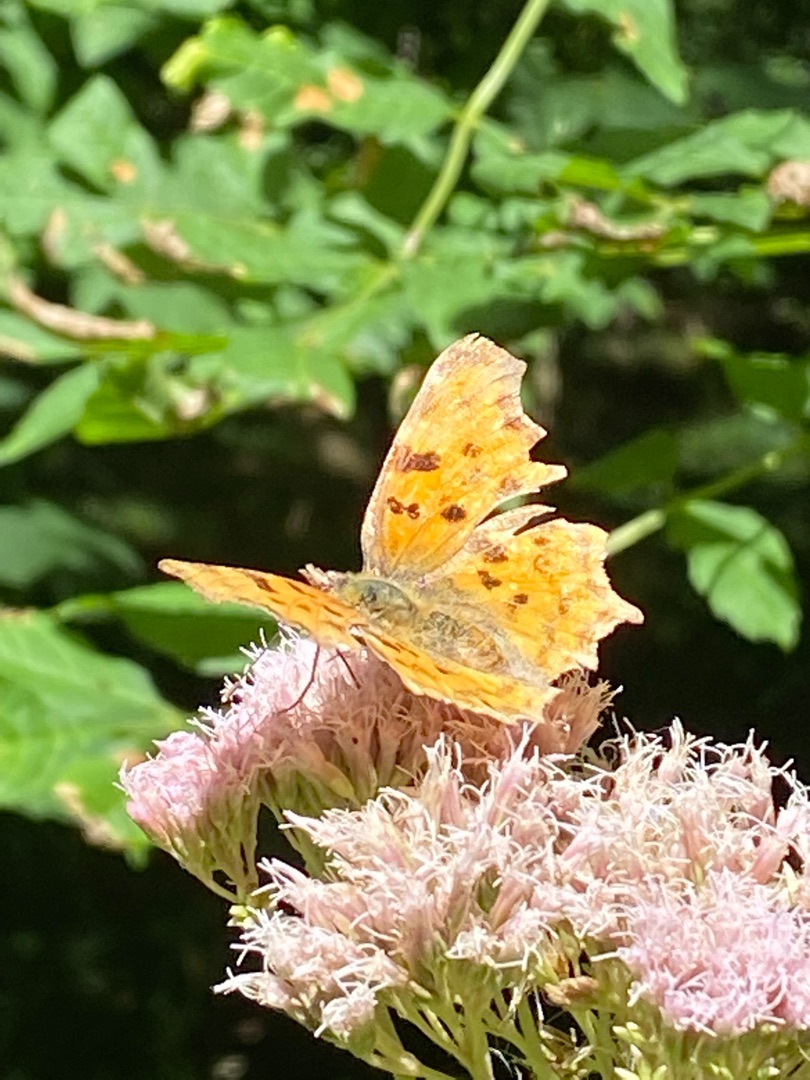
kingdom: Animalia
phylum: Arthropoda
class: Insecta
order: Lepidoptera
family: Nymphalidae
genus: Polygonia
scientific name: Polygonia c-album
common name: Det hvide C
